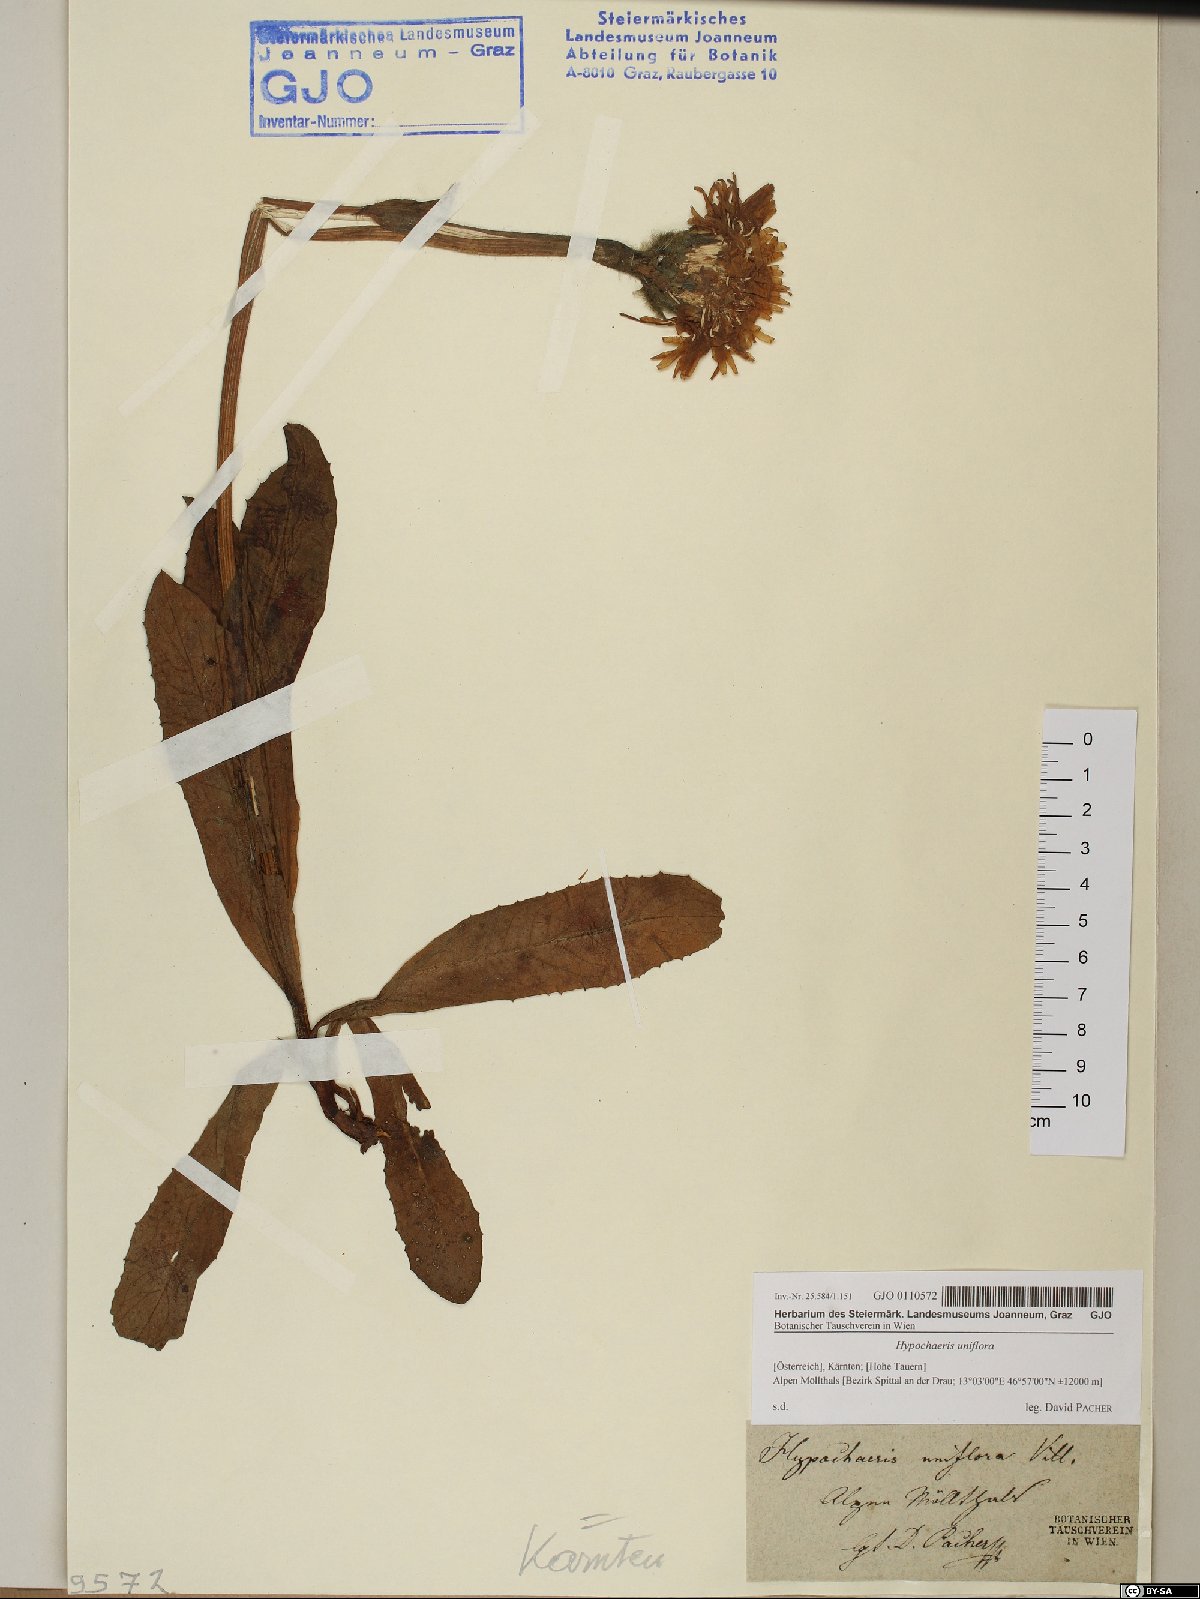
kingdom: Plantae
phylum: Tracheophyta
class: Magnoliopsida
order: Asterales
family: Asteraceae
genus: Trommsdorffia
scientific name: Trommsdorffia uniflora
